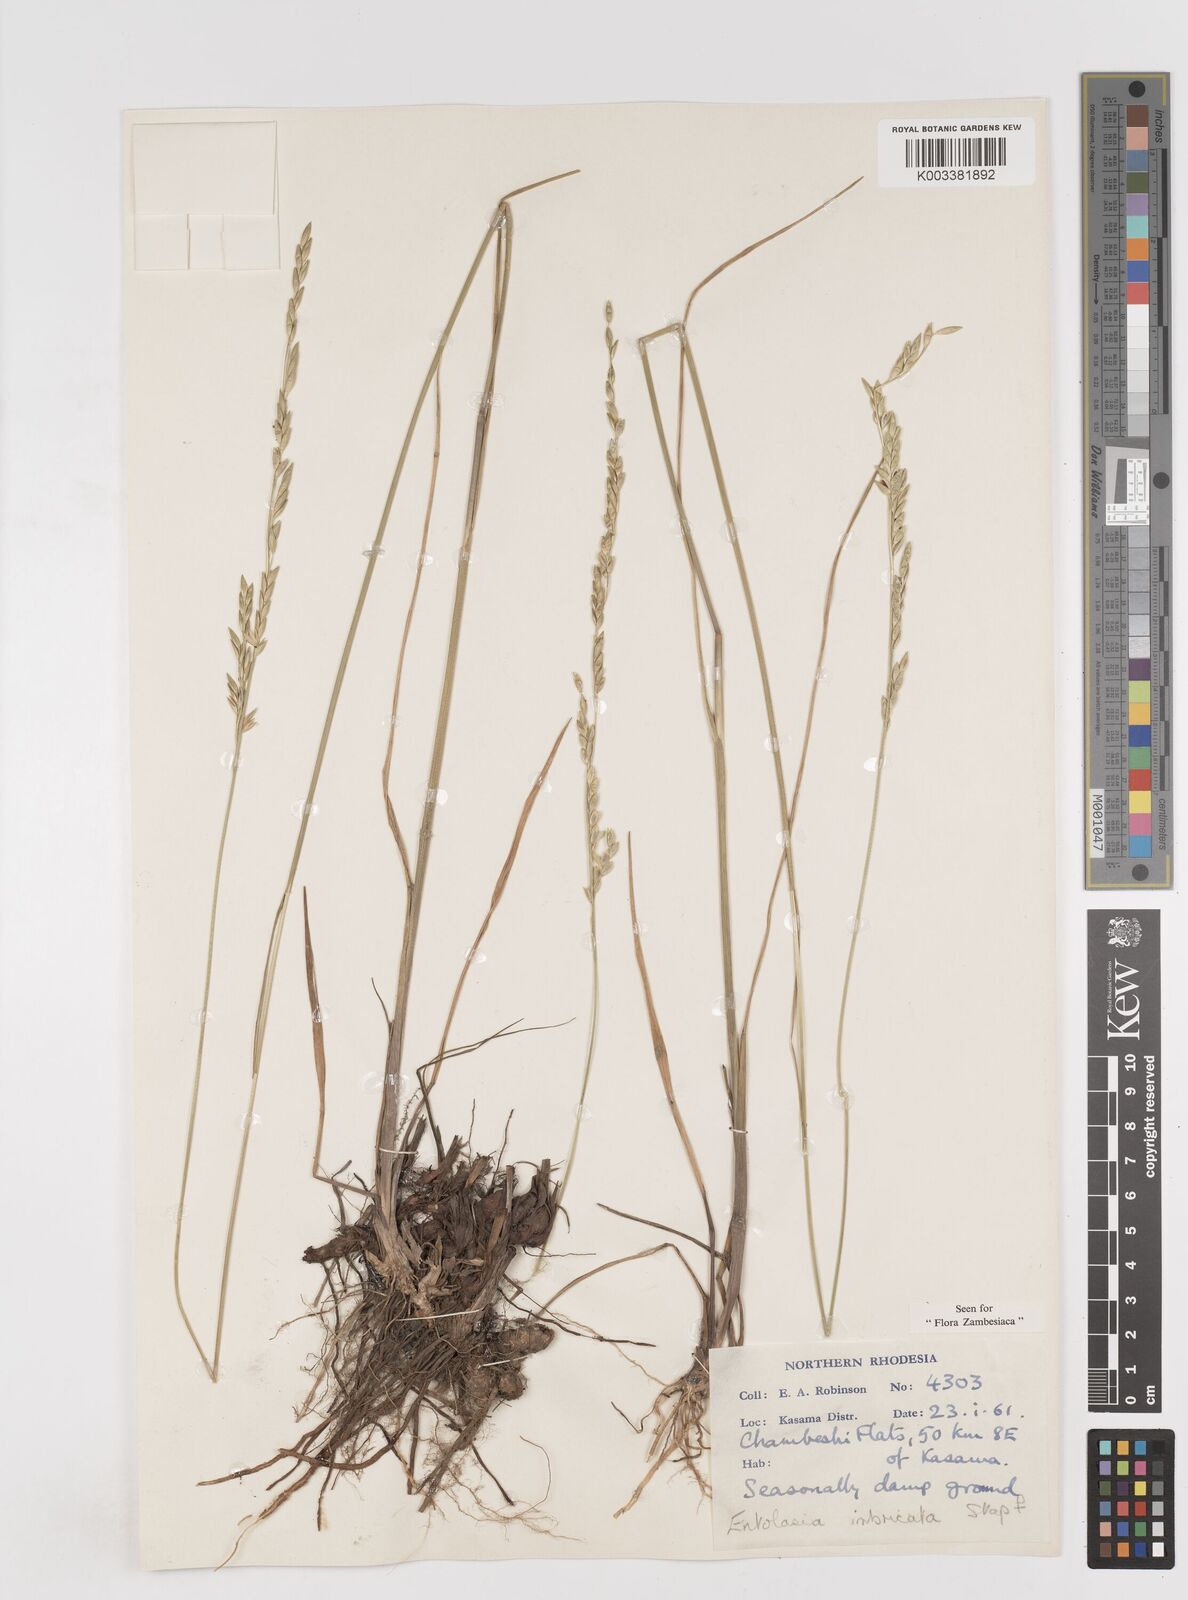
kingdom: Plantae
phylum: Tracheophyta
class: Liliopsida
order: Poales
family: Poaceae
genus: Entolasia
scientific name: Entolasia imbricata
